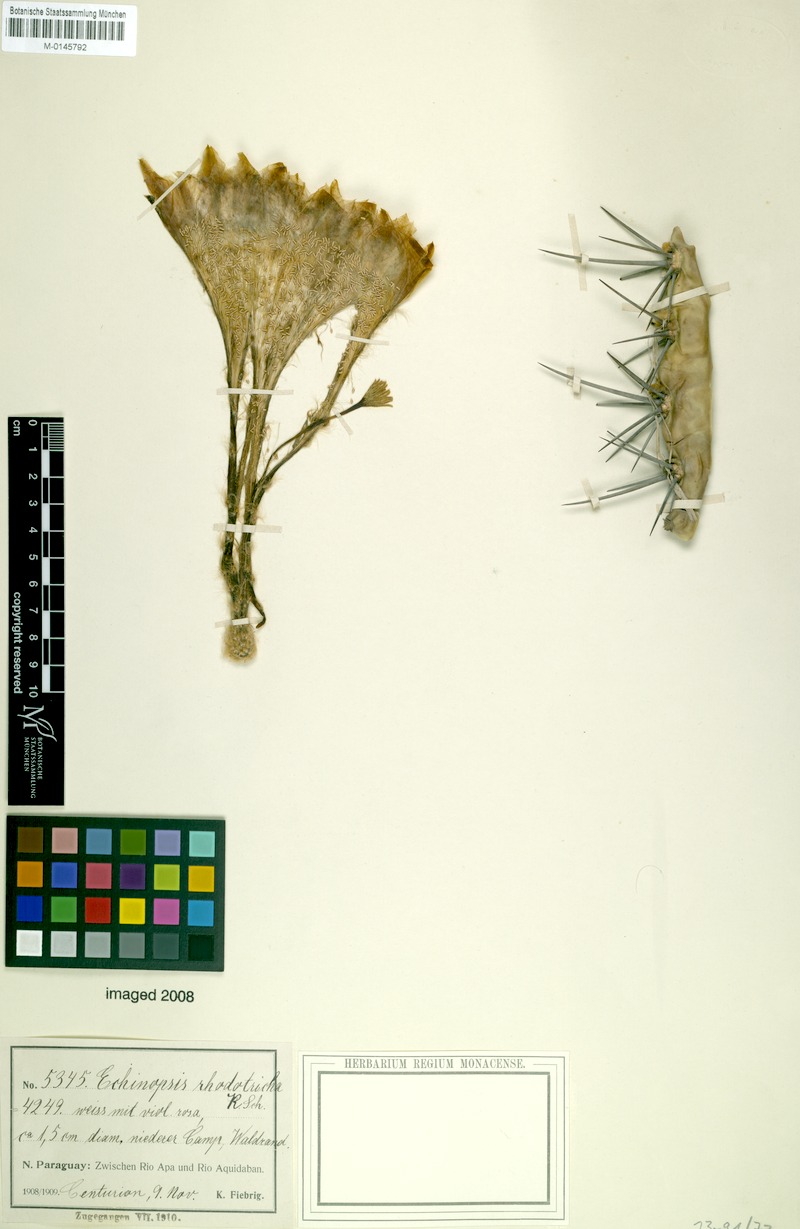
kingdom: Plantae
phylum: Tracheophyta
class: Magnoliopsida
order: Caryophyllales
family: Cactaceae
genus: Acanthocalycium
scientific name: Acanthocalycium rhodotrichum
